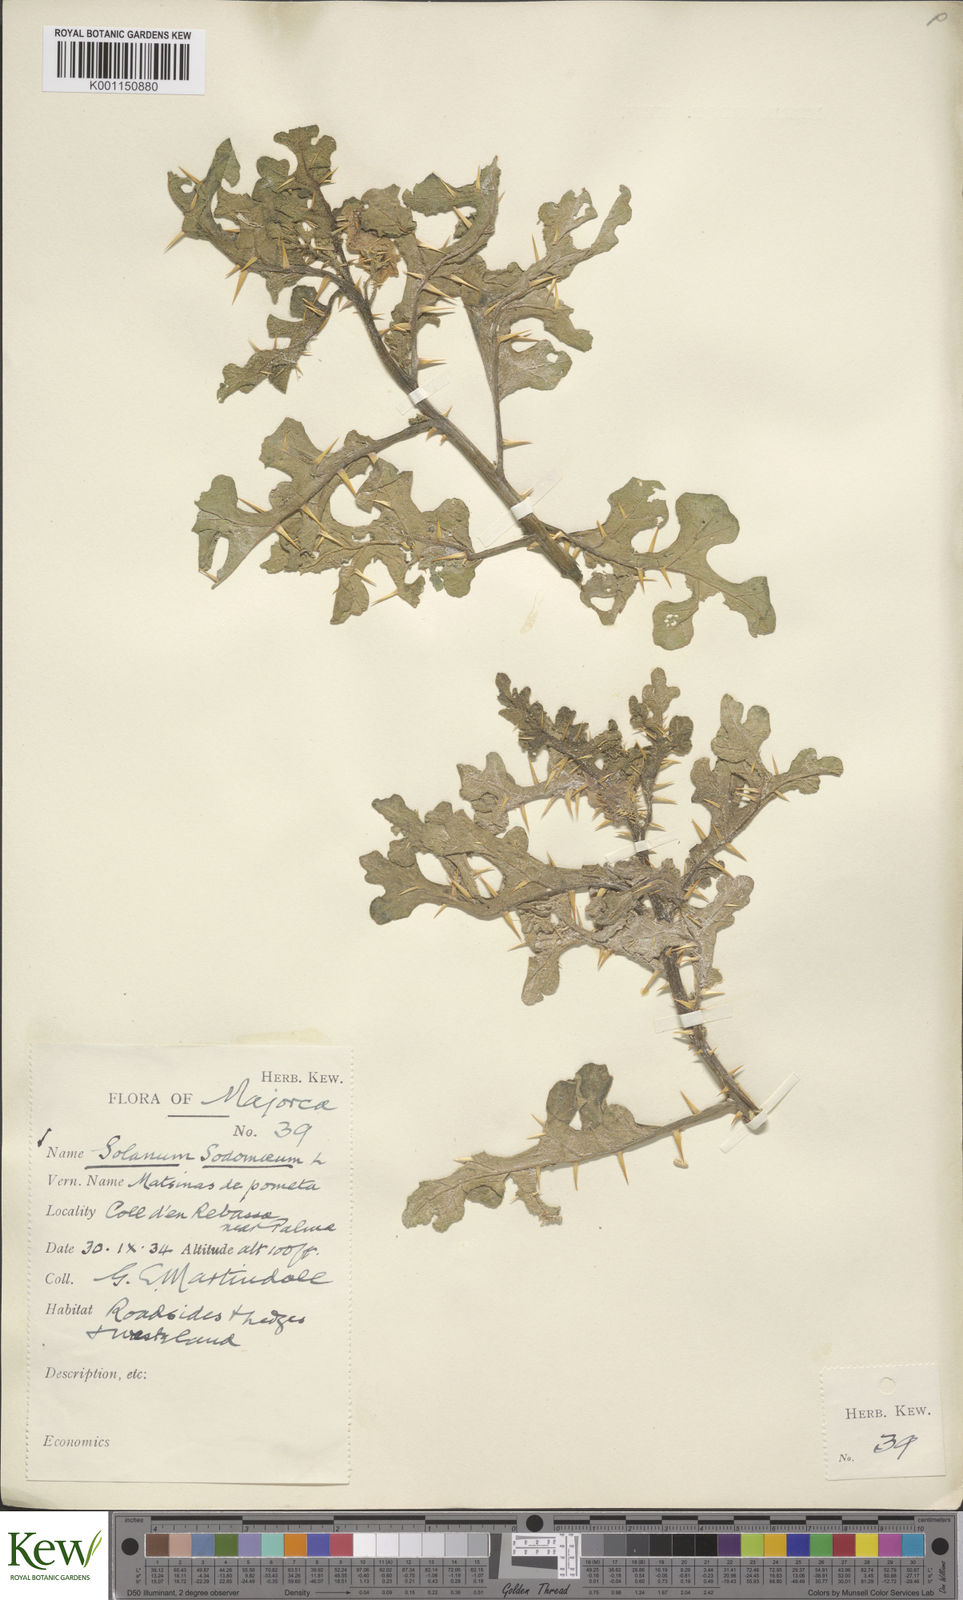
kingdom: Plantae
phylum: Tracheophyta
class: Magnoliopsida
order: Solanales
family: Solanaceae
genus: Solanum
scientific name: Solanum anguivi
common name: Forest bitterberry
